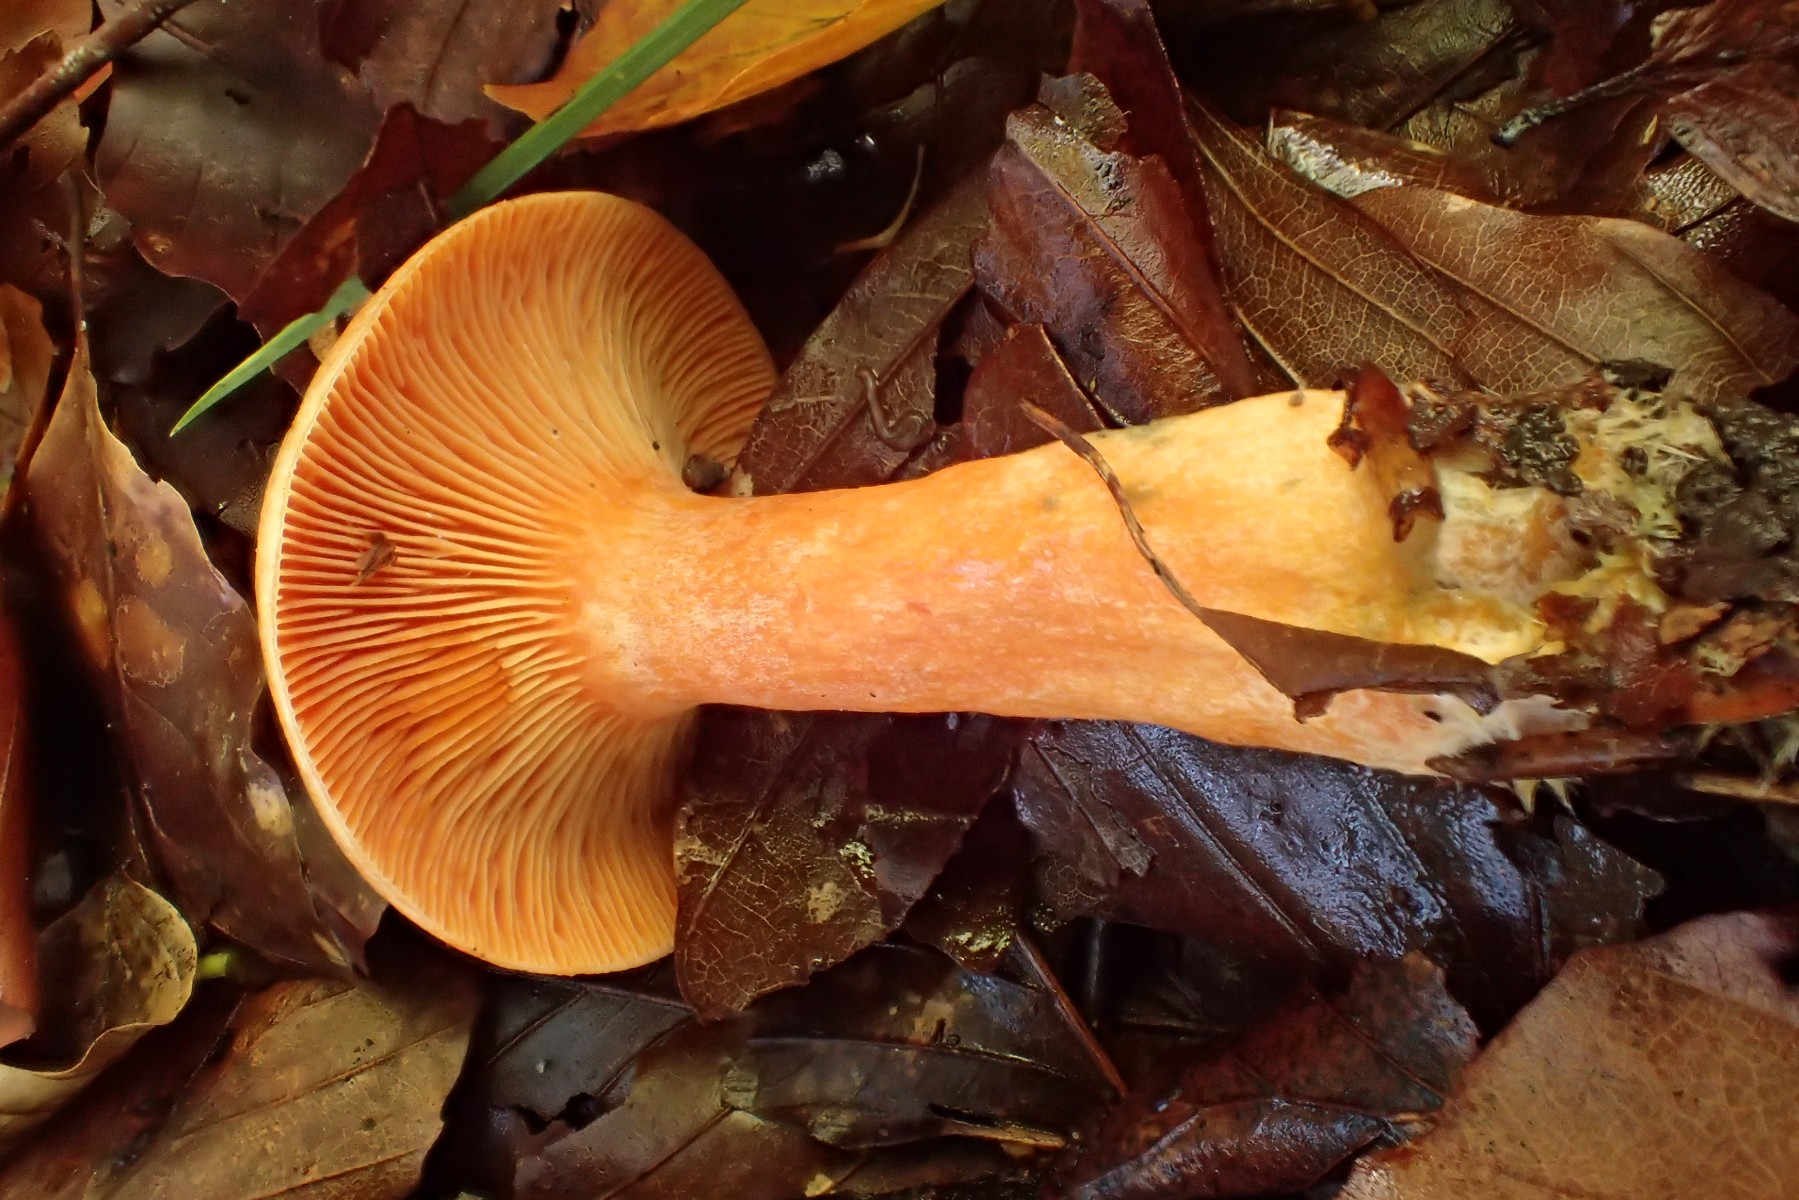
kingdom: Fungi
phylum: Basidiomycota
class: Agaricomycetes
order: Russulales
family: Russulaceae
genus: Lactarius
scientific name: Lactarius deterrimus
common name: gran-mælkehat
